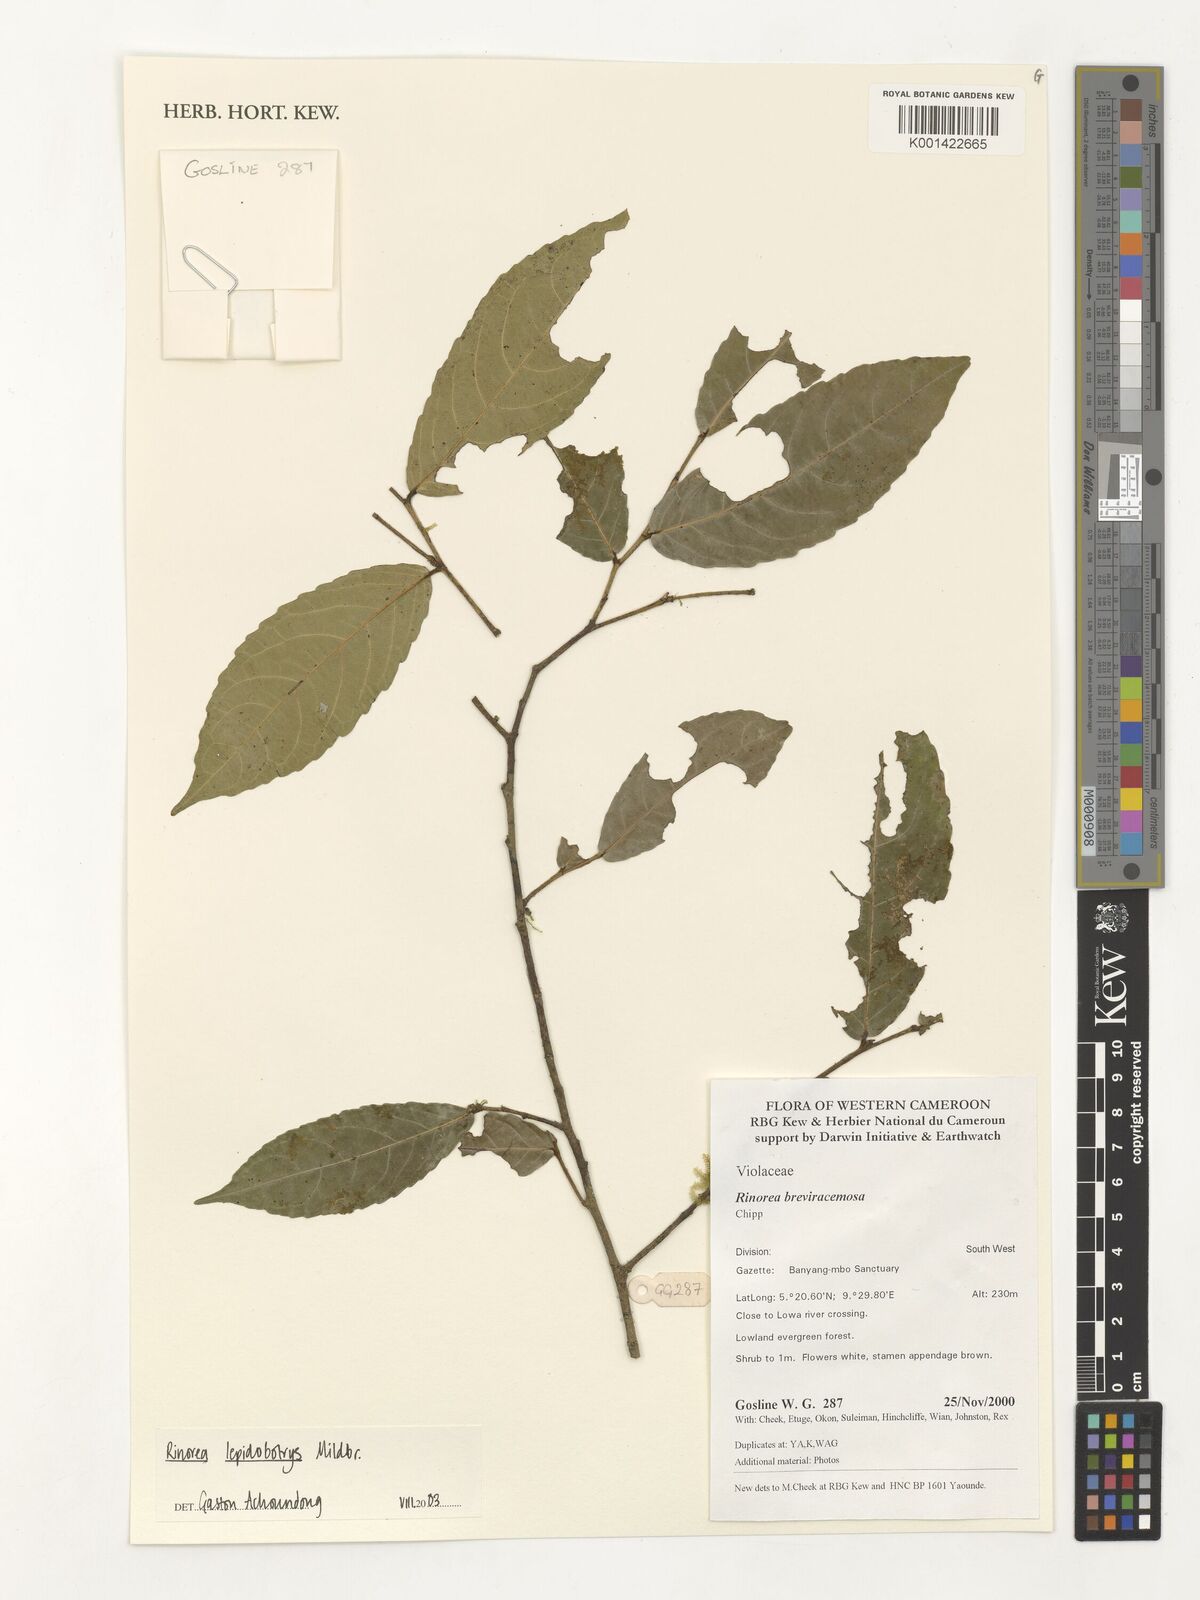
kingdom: Plantae
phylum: Tracheophyta
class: Magnoliopsida
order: Malpighiales
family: Violaceae
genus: Rinorea
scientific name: Rinorea lepidobotrys
